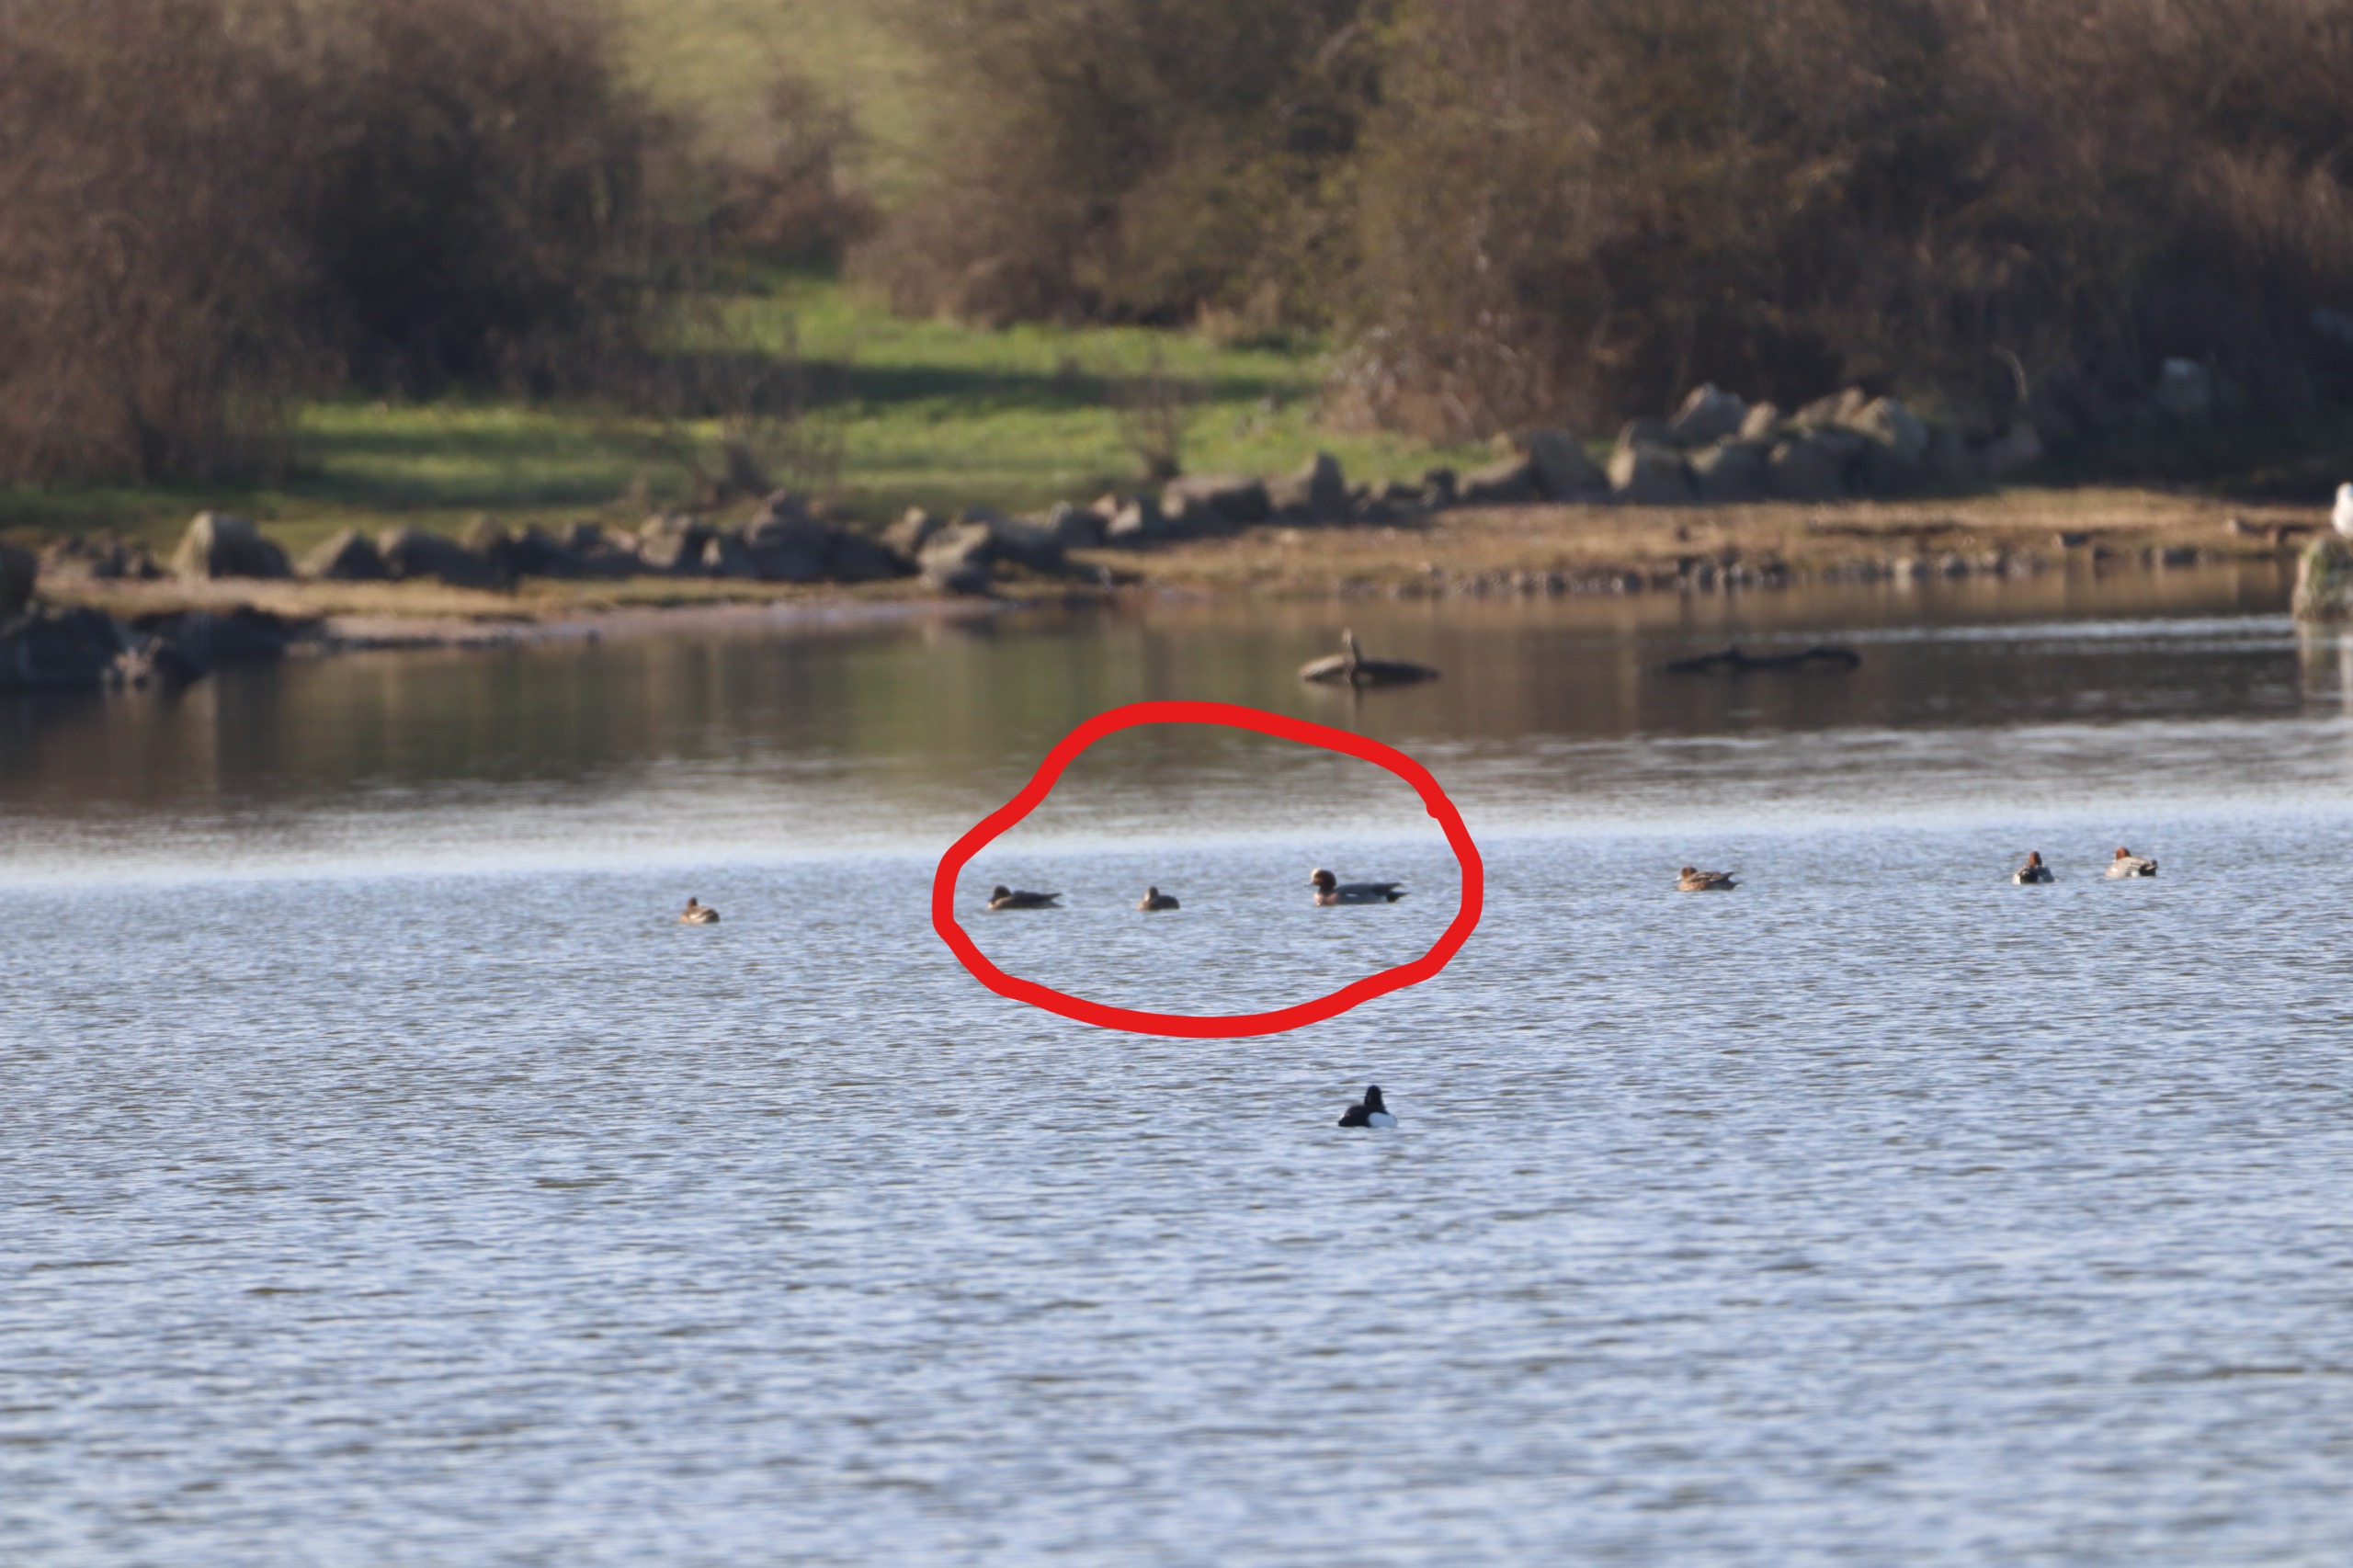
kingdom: Animalia
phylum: Chordata
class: Aves
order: Anseriformes
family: Anatidae
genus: Mareca
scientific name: Mareca penelope
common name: Pibeand
